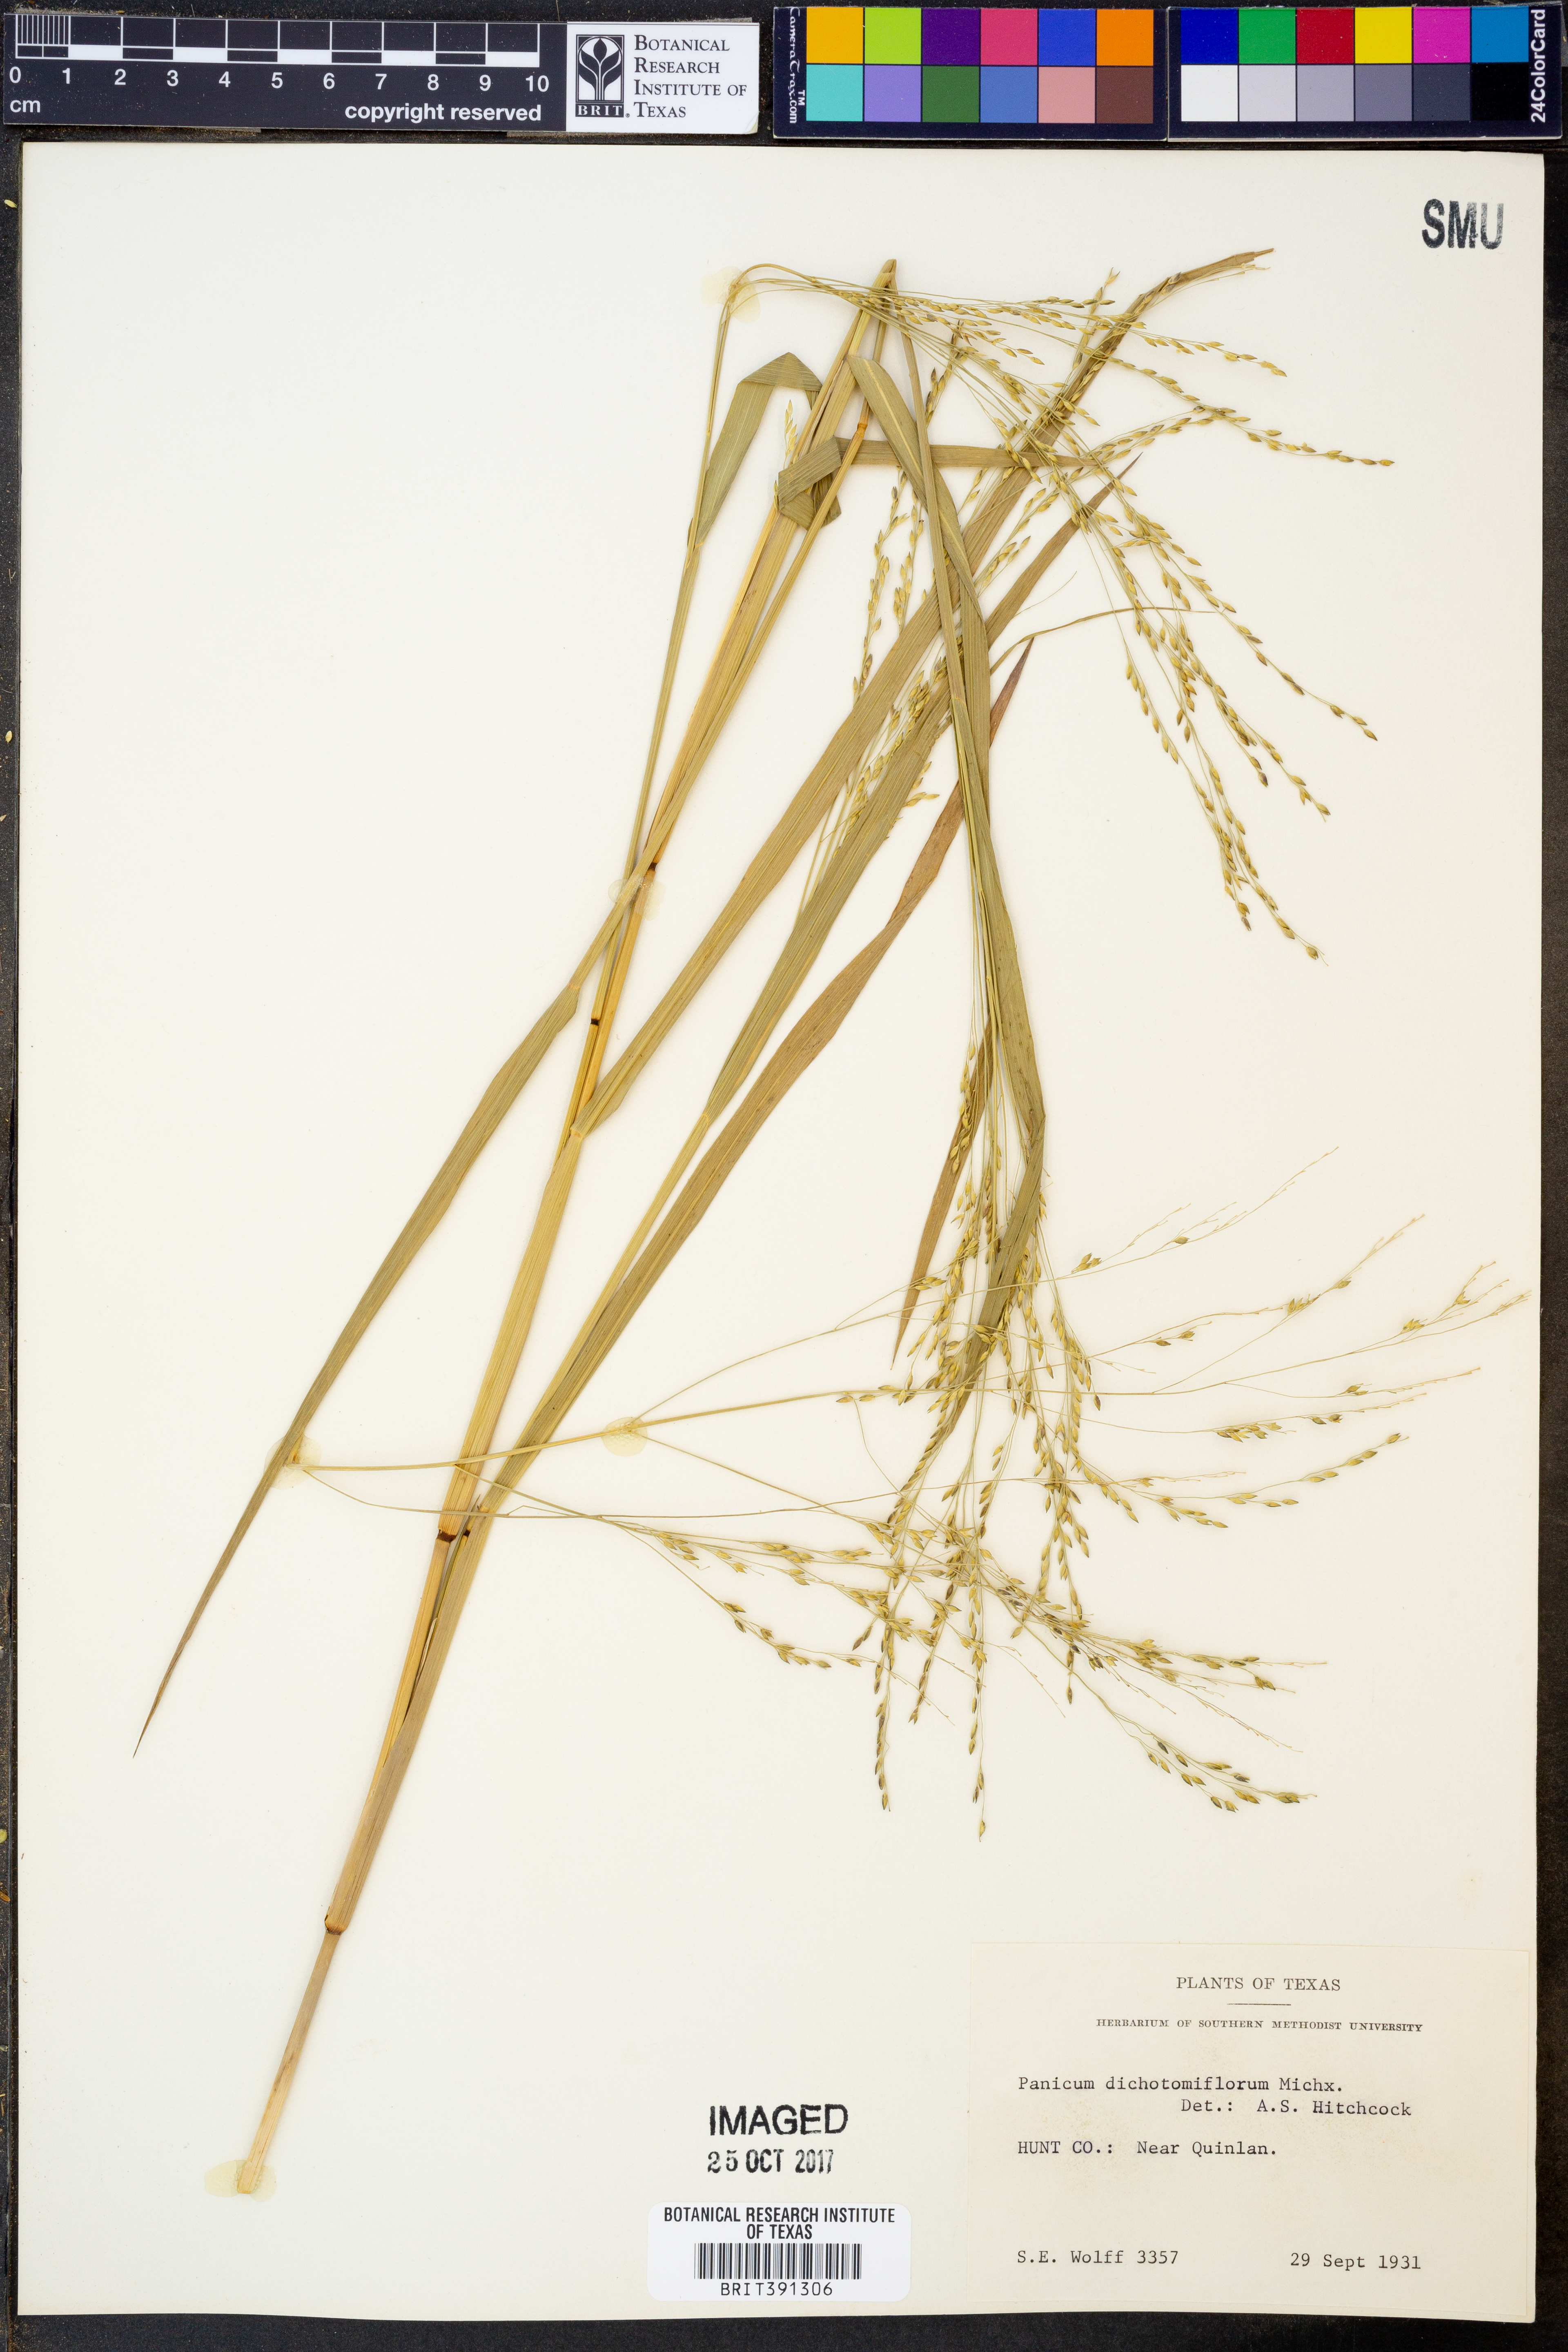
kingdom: Plantae
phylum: Tracheophyta
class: Liliopsida
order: Poales
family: Poaceae
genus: Panicum
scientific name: Panicum dichotomiflorum
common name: Autumn millet
